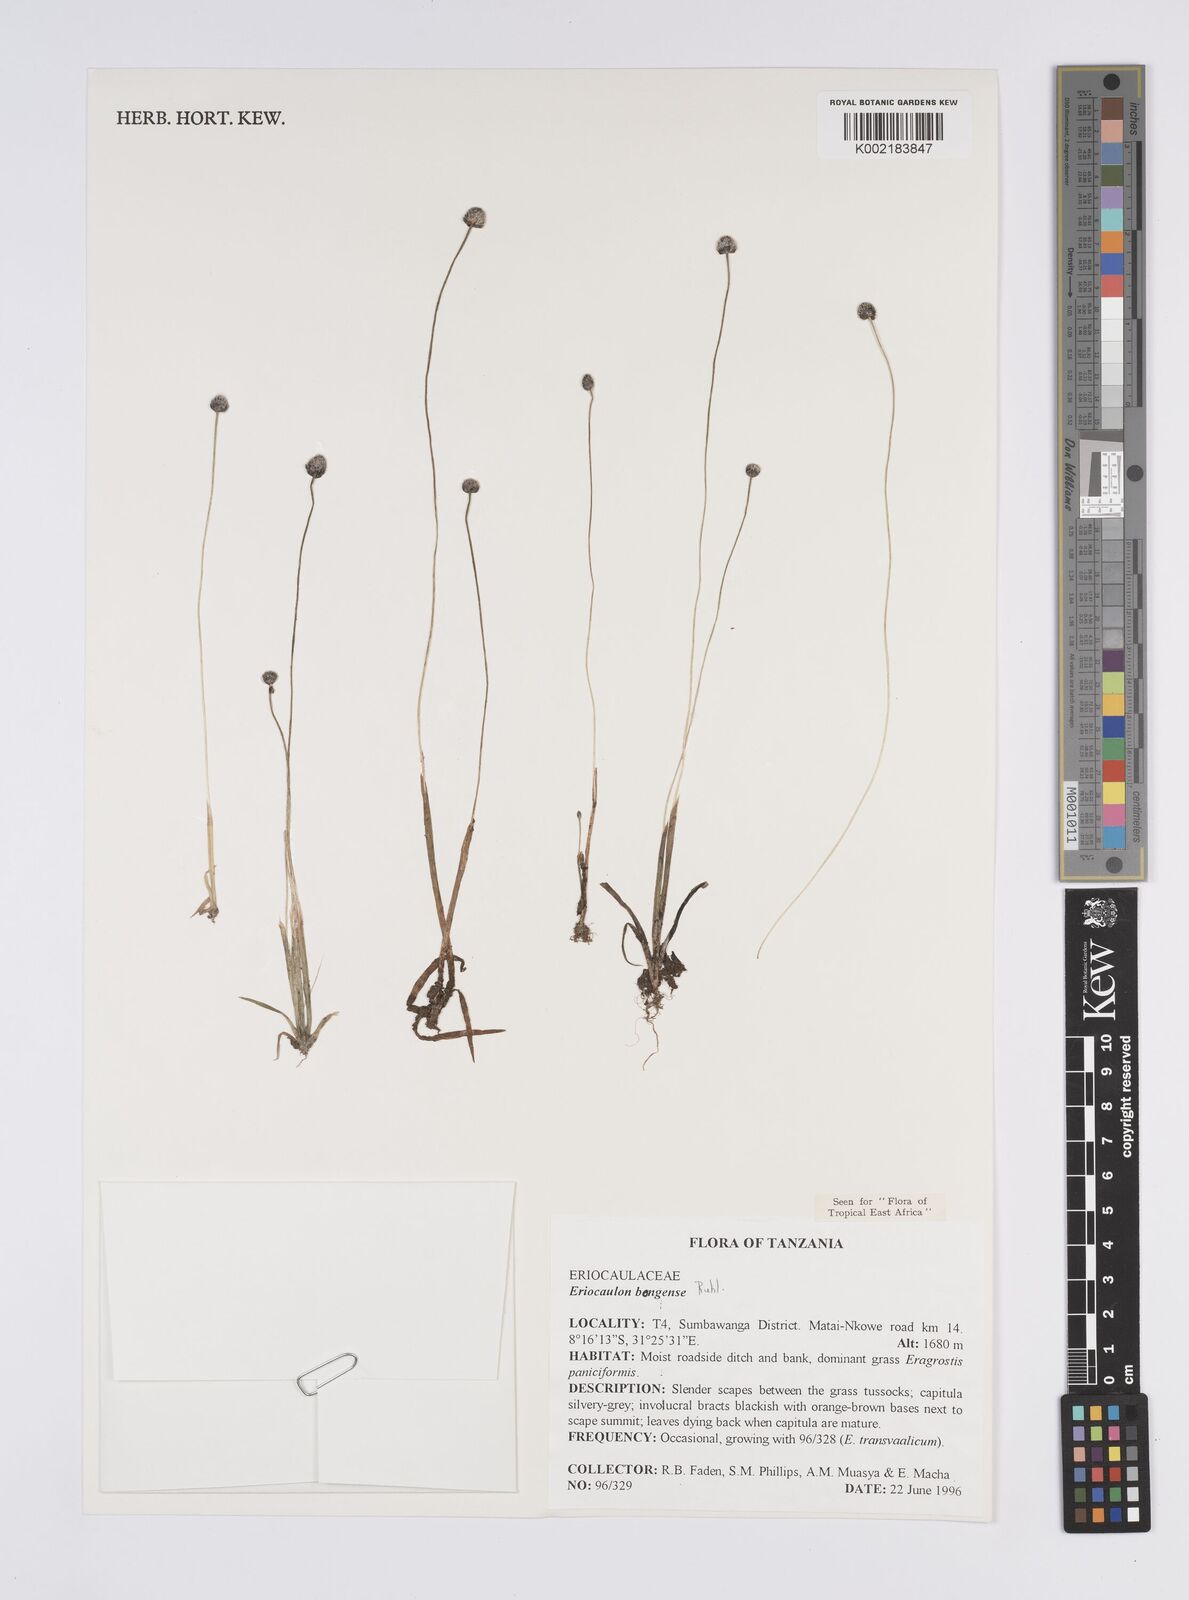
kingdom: Plantae
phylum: Tracheophyta
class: Liliopsida
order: Poales
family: Eriocaulaceae
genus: Eriocaulon
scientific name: Eriocaulon bongense
